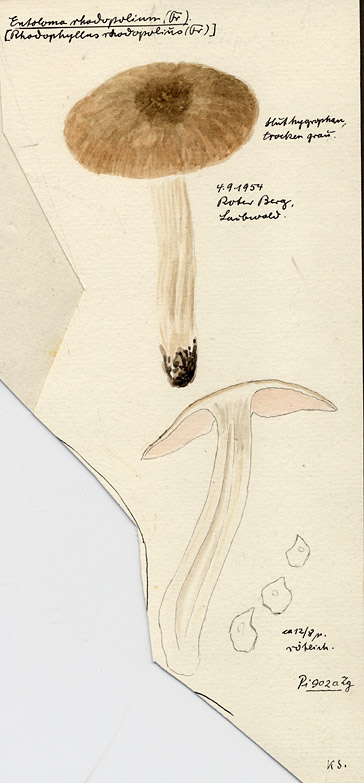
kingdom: Fungi
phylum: Basidiomycota
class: Agaricomycetes
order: Agaricales
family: Entolomataceae
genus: Entoloma
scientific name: Entoloma rhodopolium
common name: Wood pinkgill
